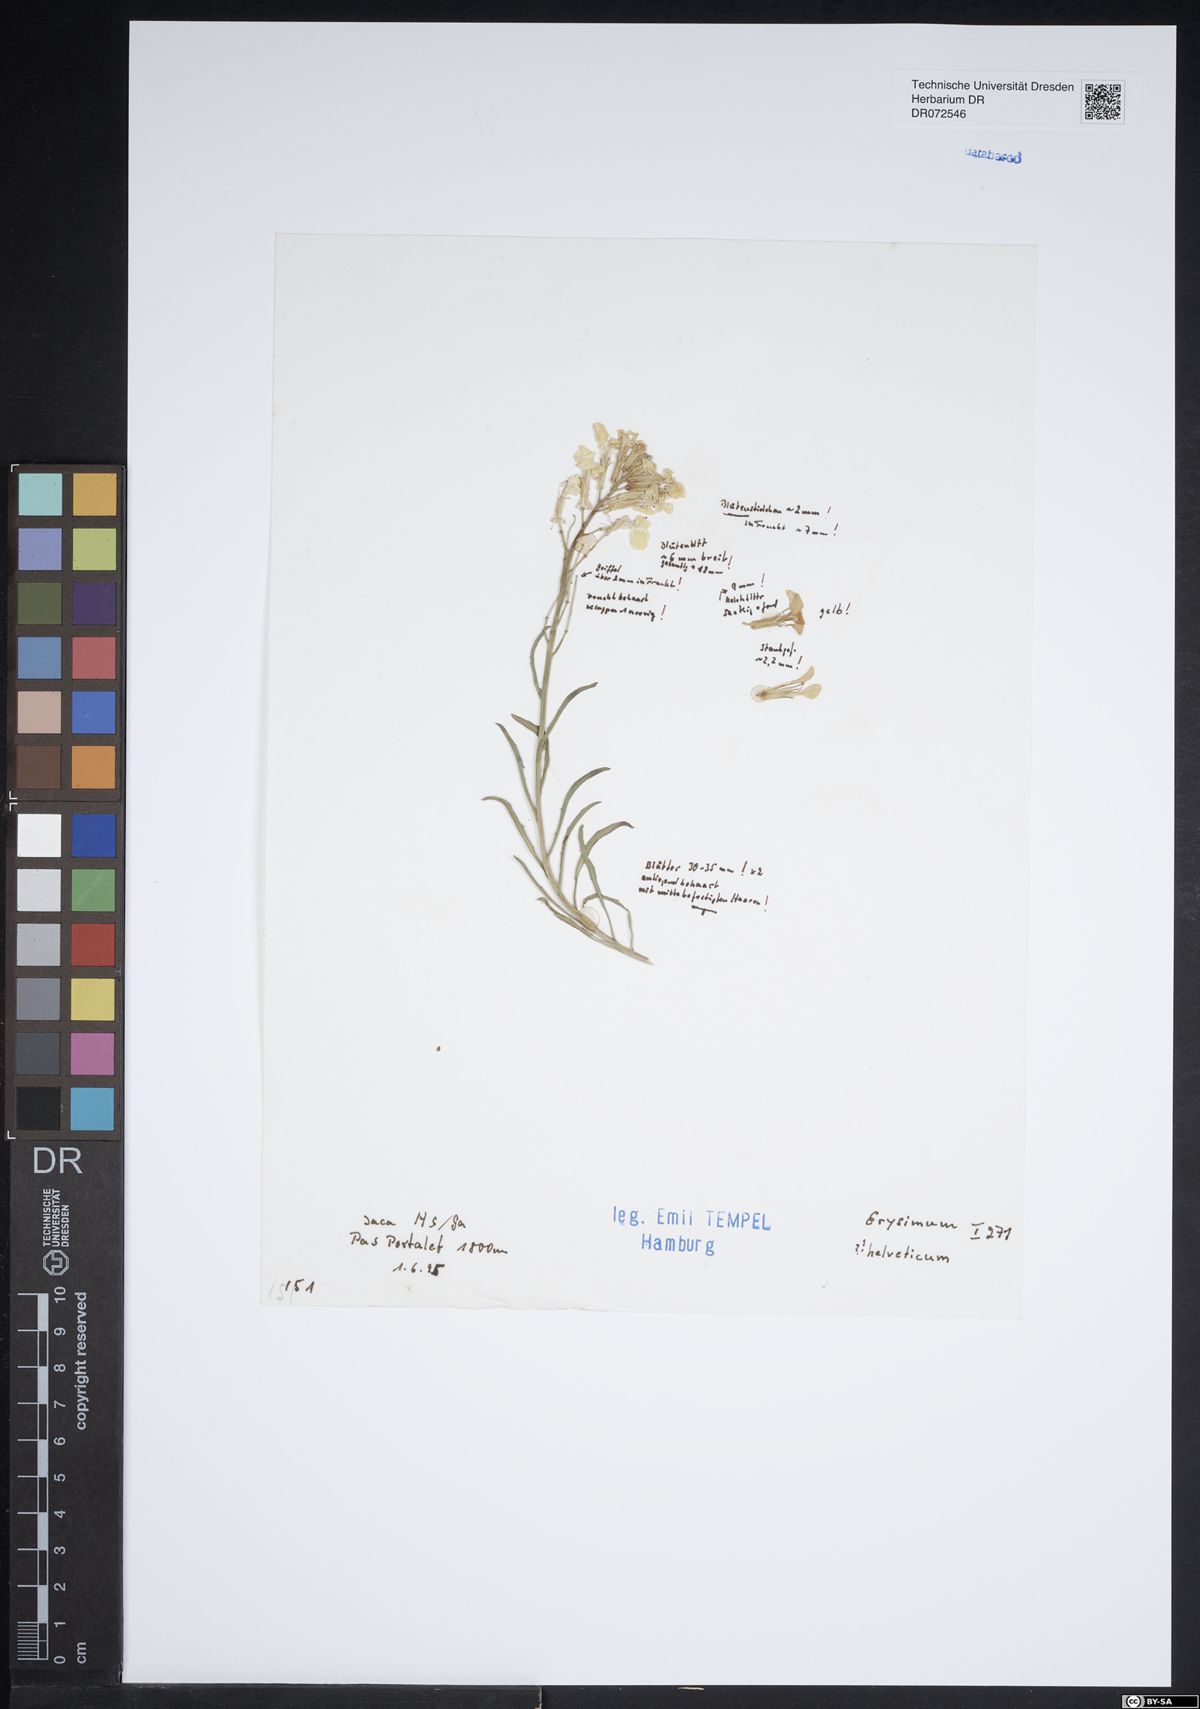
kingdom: Plantae
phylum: Tracheophyta
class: Magnoliopsida
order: Brassicales
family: Brassicaceae
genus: Erysimum
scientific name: Erysimum rhaeticum
